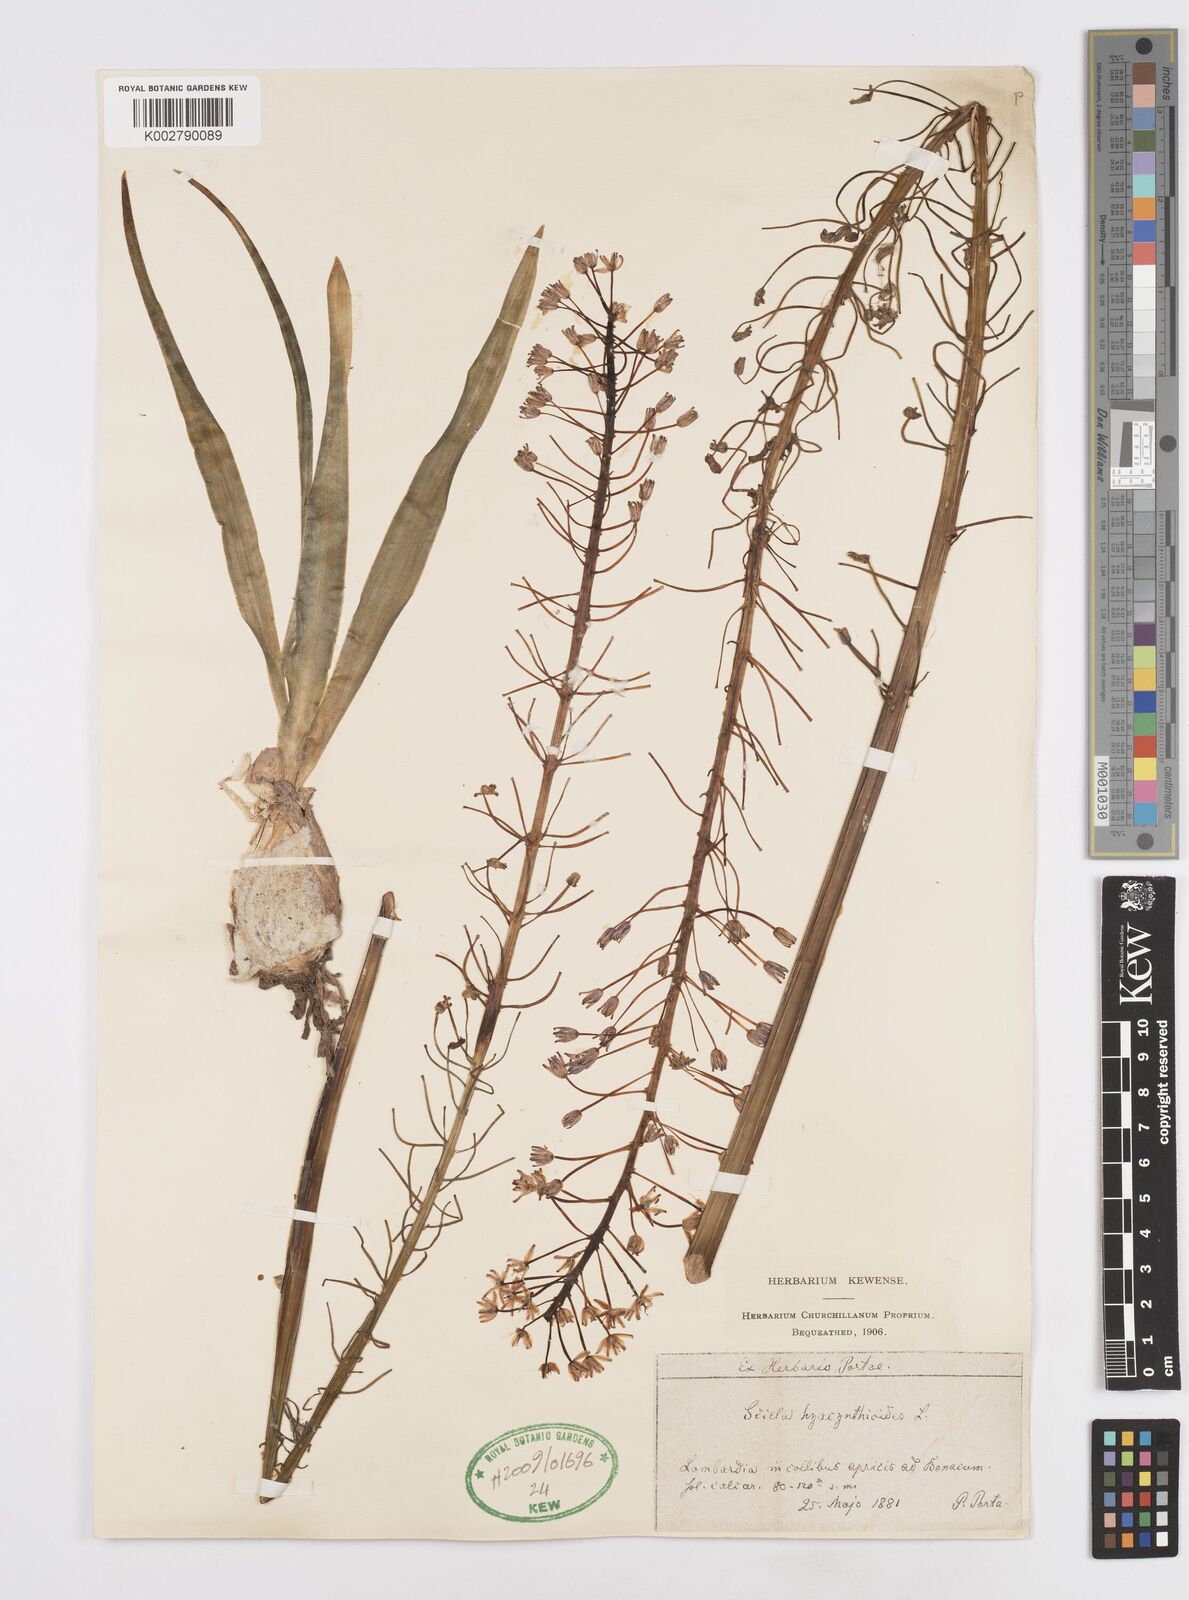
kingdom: Plantae
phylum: Tracheophyta
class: Liliopsida
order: Asparagales
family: Asparagaceae
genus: Scilla
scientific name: Scilla hyacinthoides
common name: Scilla
